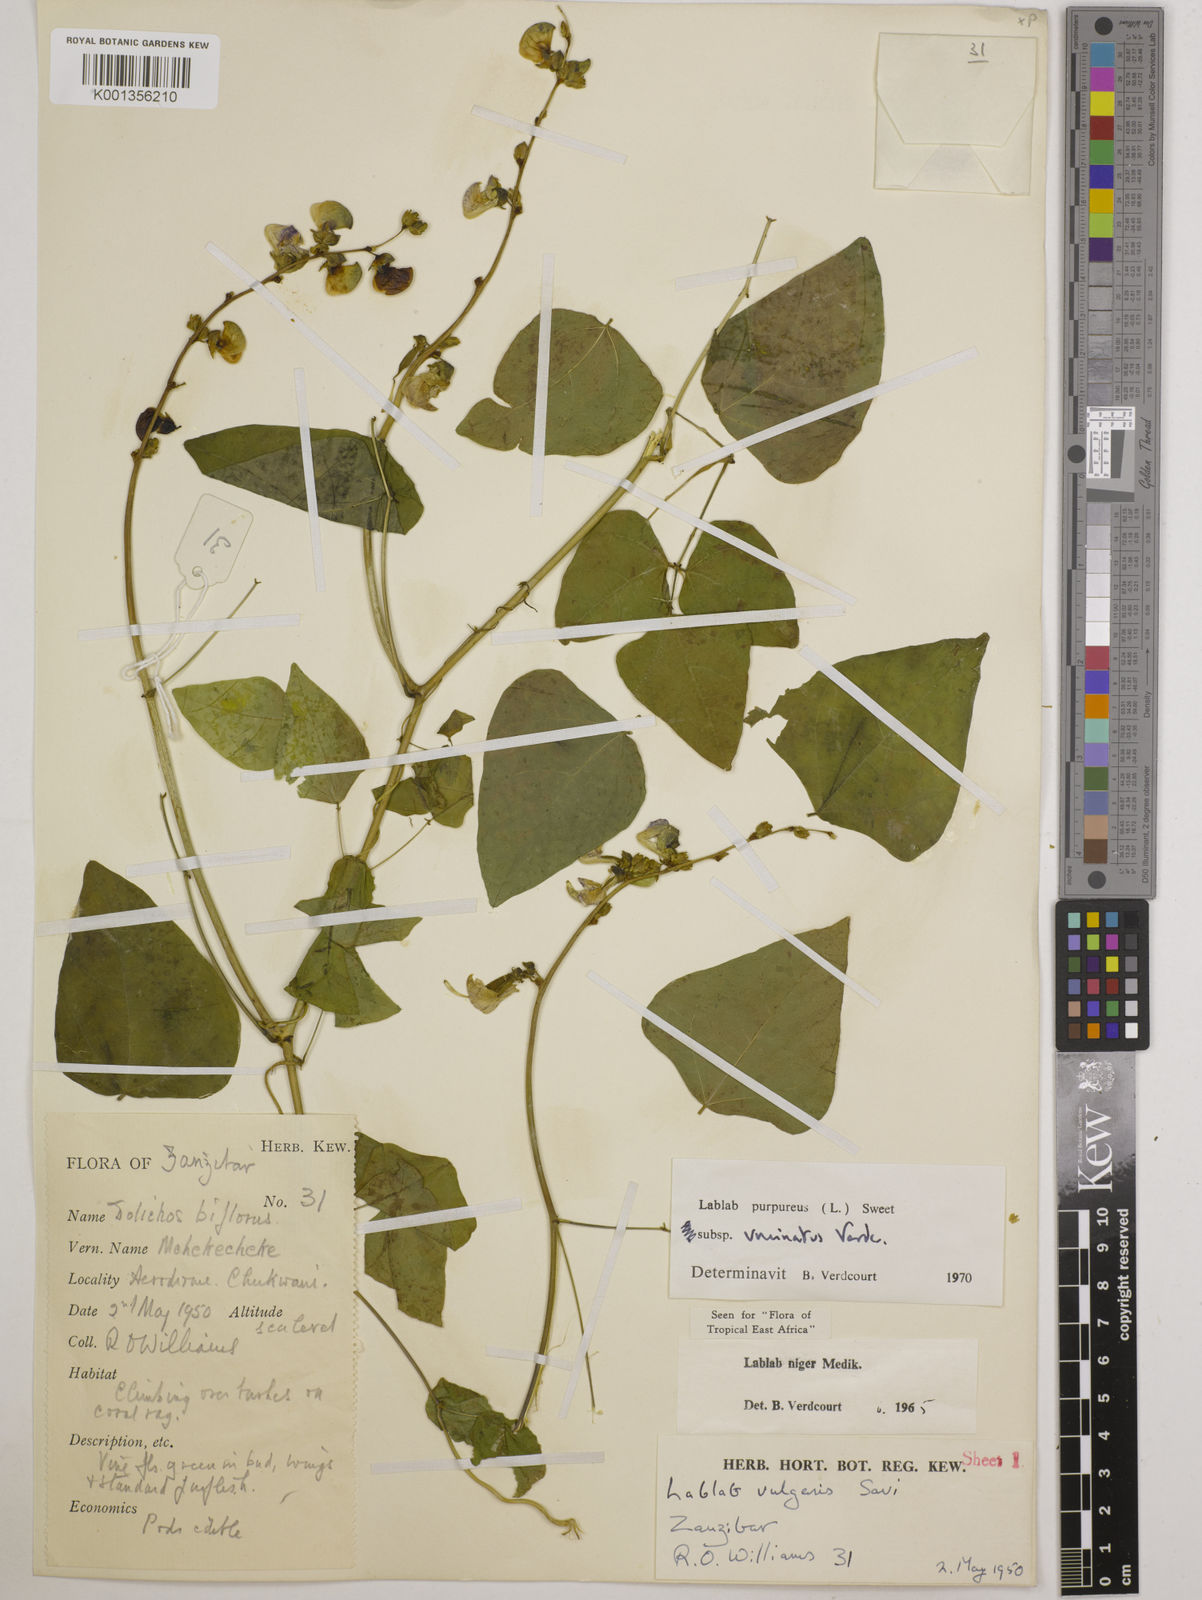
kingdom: Plantae
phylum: Tracheophyta
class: Magnoliopsida
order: Fabales
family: Fabaceae
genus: Lablab
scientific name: Lablab purpureus
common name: Lablab-bean
